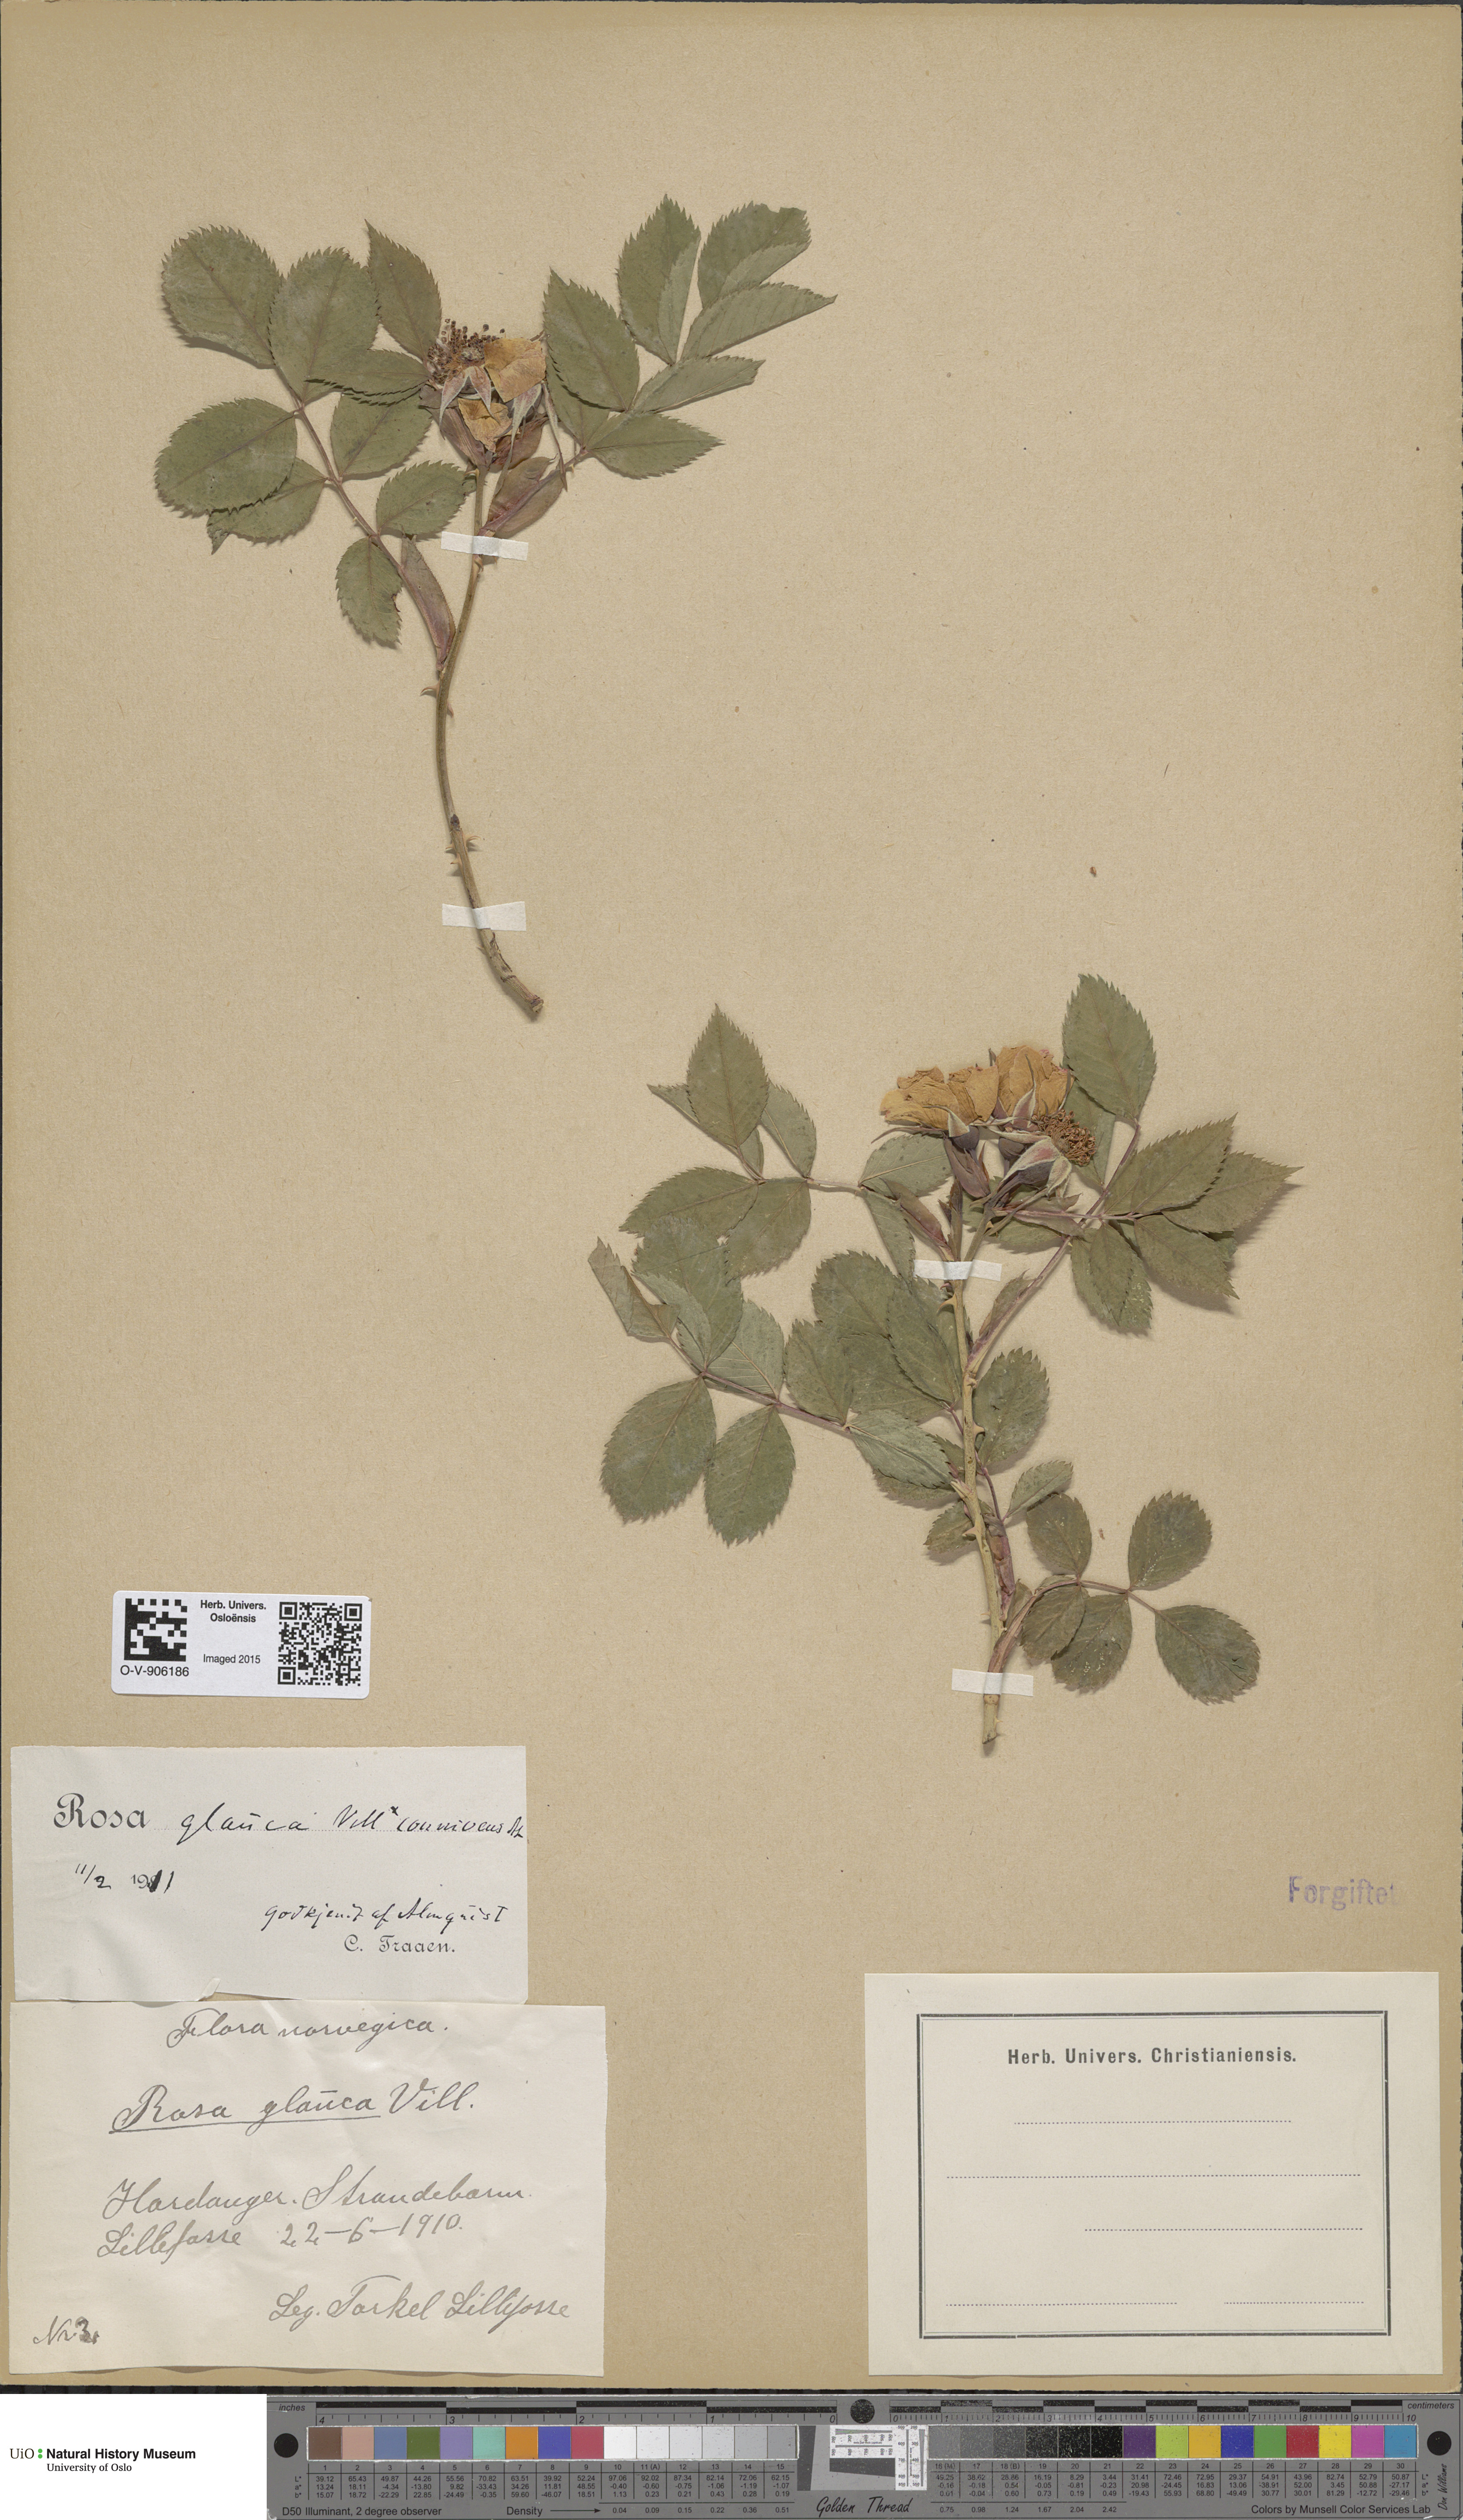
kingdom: Plantae
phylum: Tracheophyta
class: Magnoliopsida
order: Rosales
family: Rosaceae
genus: Rosa
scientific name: Rosa glauca
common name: Redleaf rose
